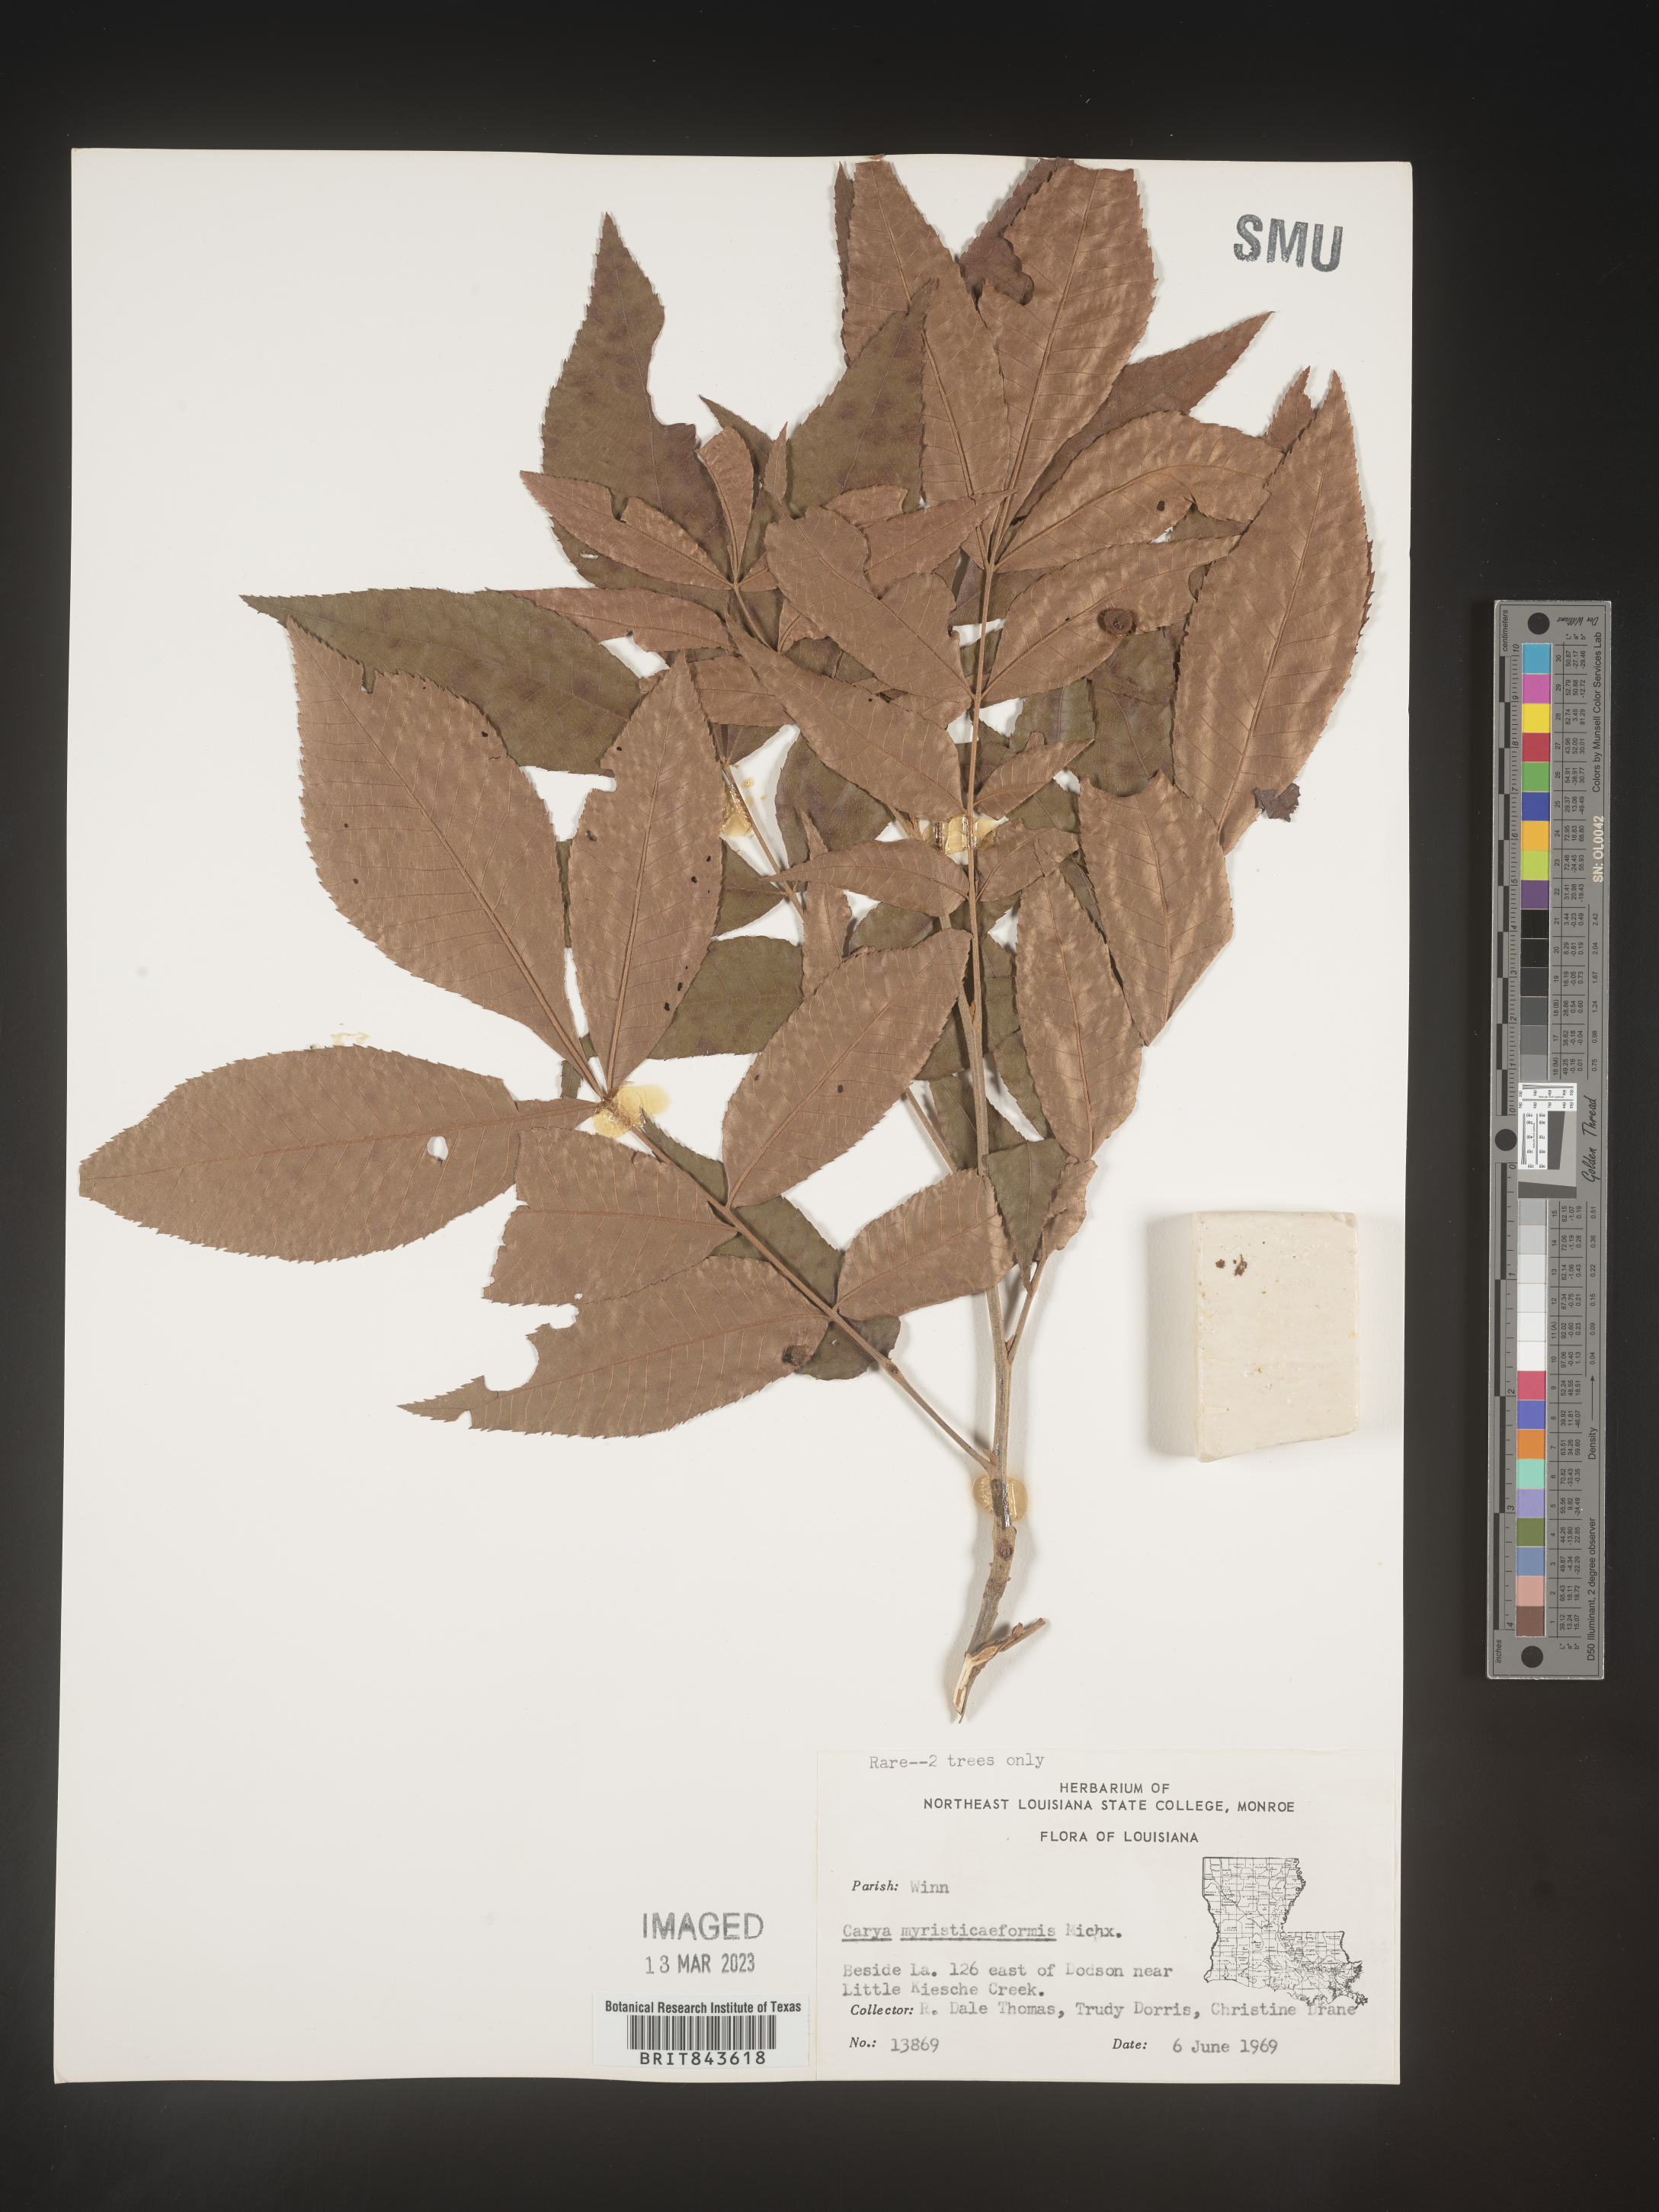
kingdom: Plantae
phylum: Tracheophyta
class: Magnoliopsida
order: Fagales
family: Juglandaceae
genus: Carya
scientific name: Carya myristiciformis
